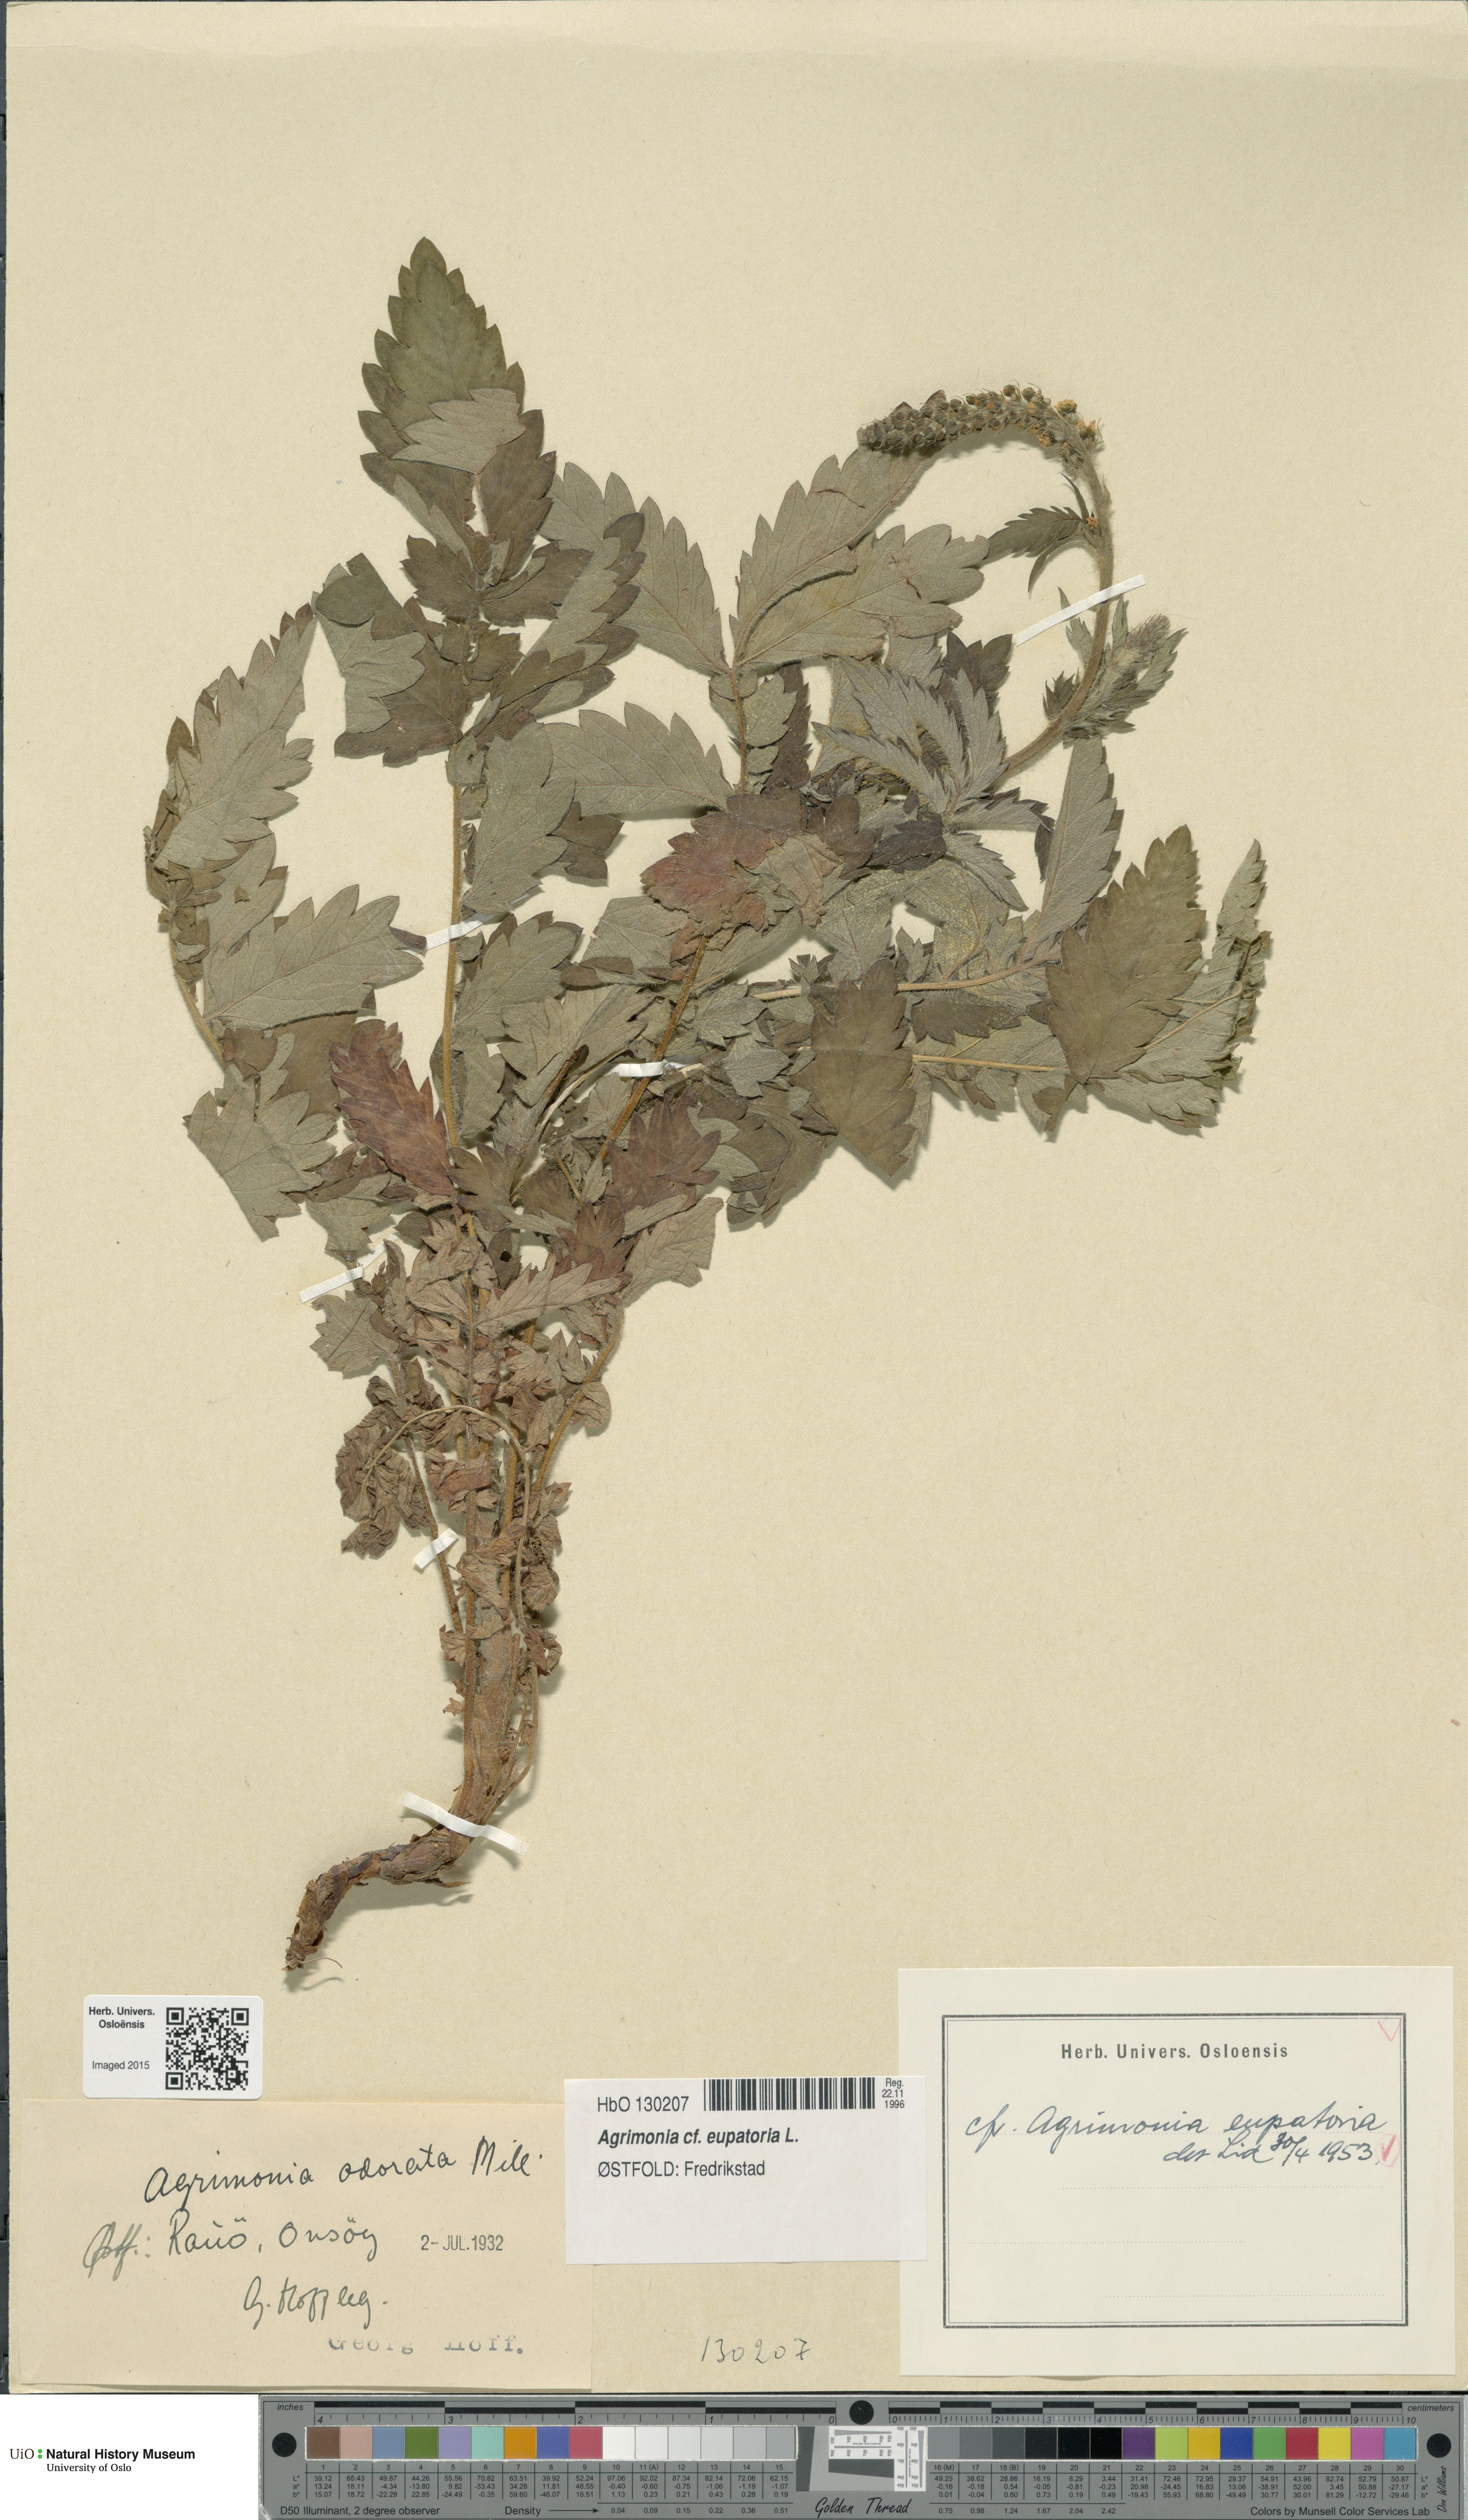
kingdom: Plantae
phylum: Tracheophyta
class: Magnoliopsida
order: Rosales
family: Rosaceae
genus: Agrimonia
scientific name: Agrimonia eupatoria
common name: Agrimony
